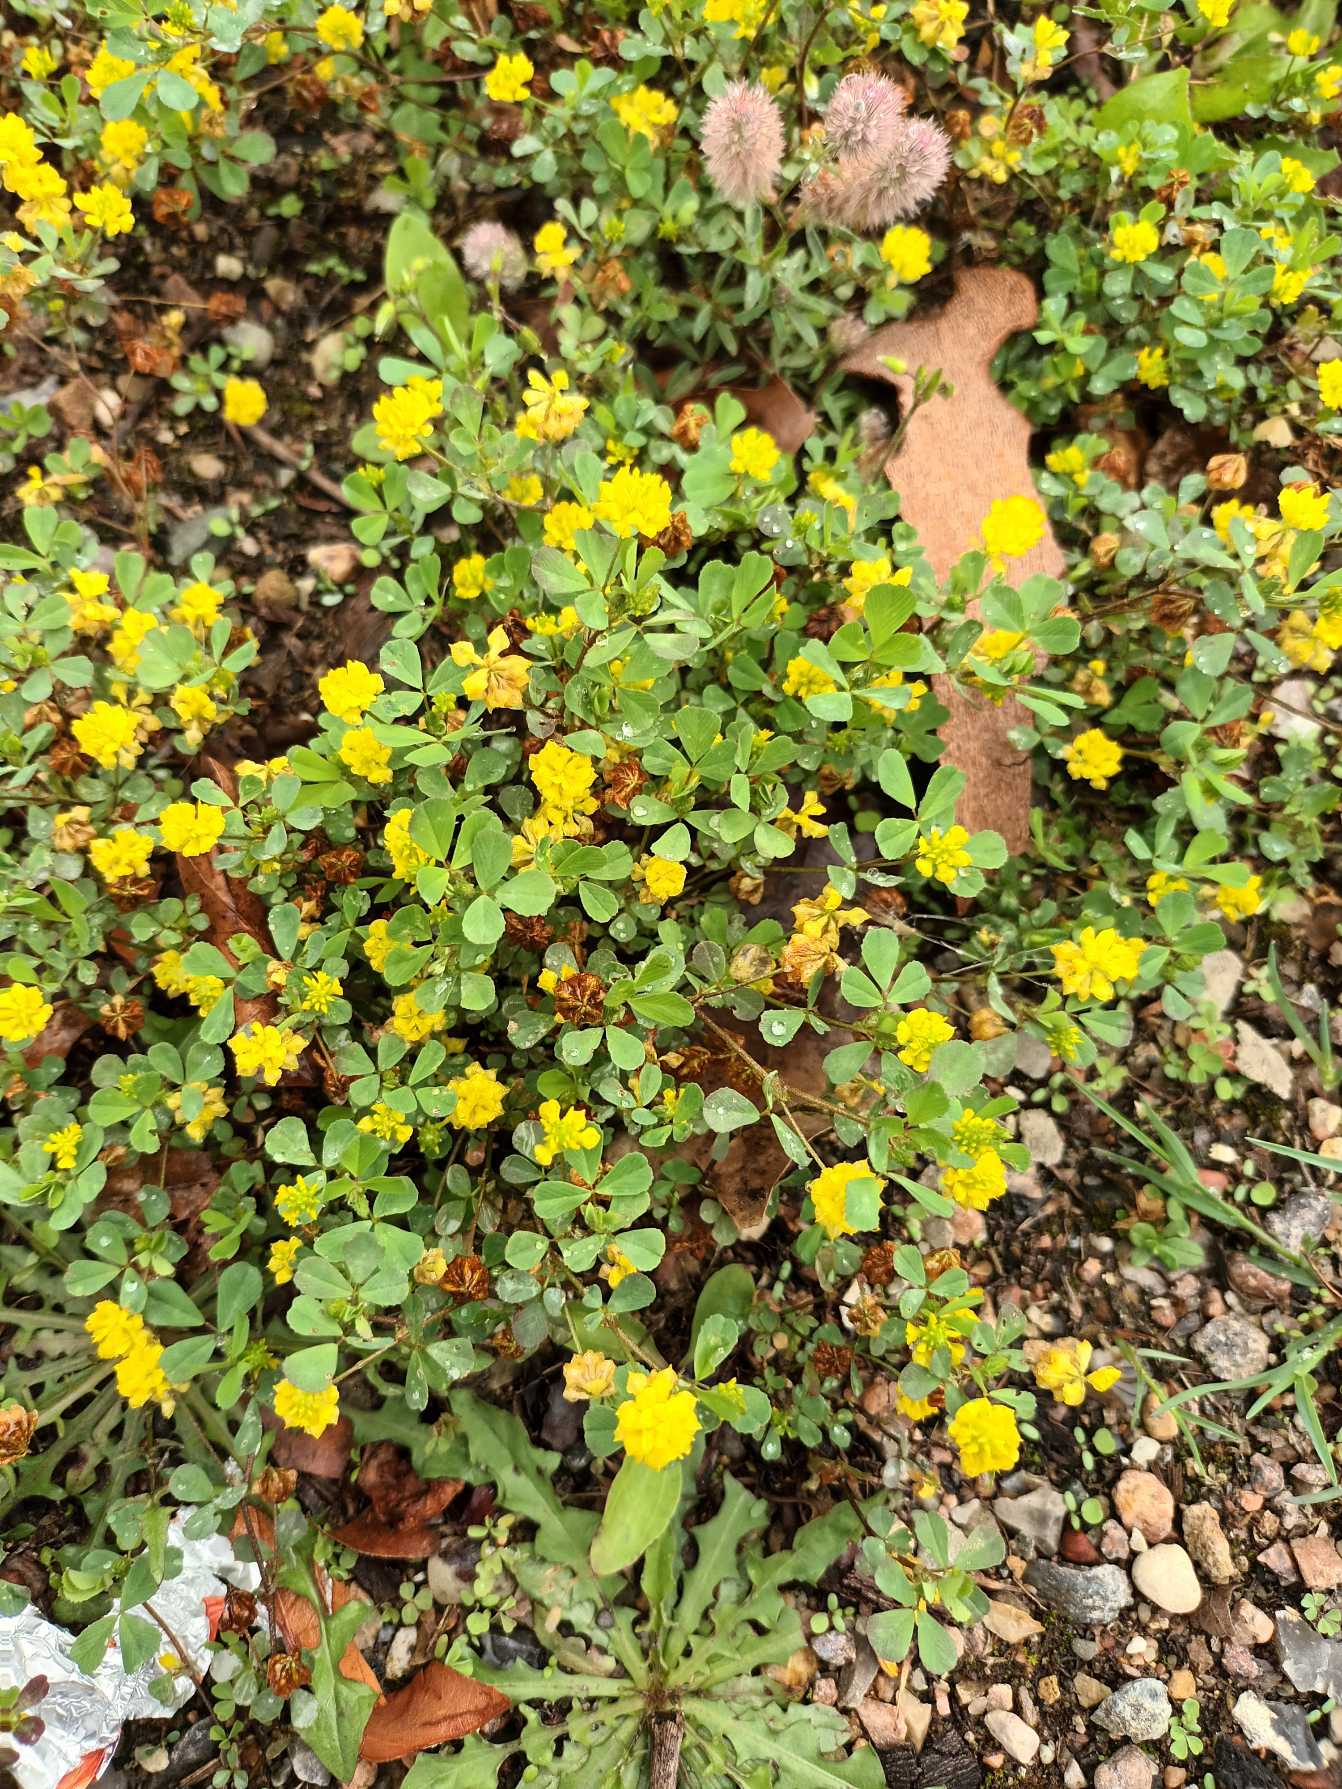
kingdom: Plantae
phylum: Tracheophyta
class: Magnoliopsida
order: Fabales
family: Fabaceae
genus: Trifolium
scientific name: Trifolium campestre
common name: Gul kløver
